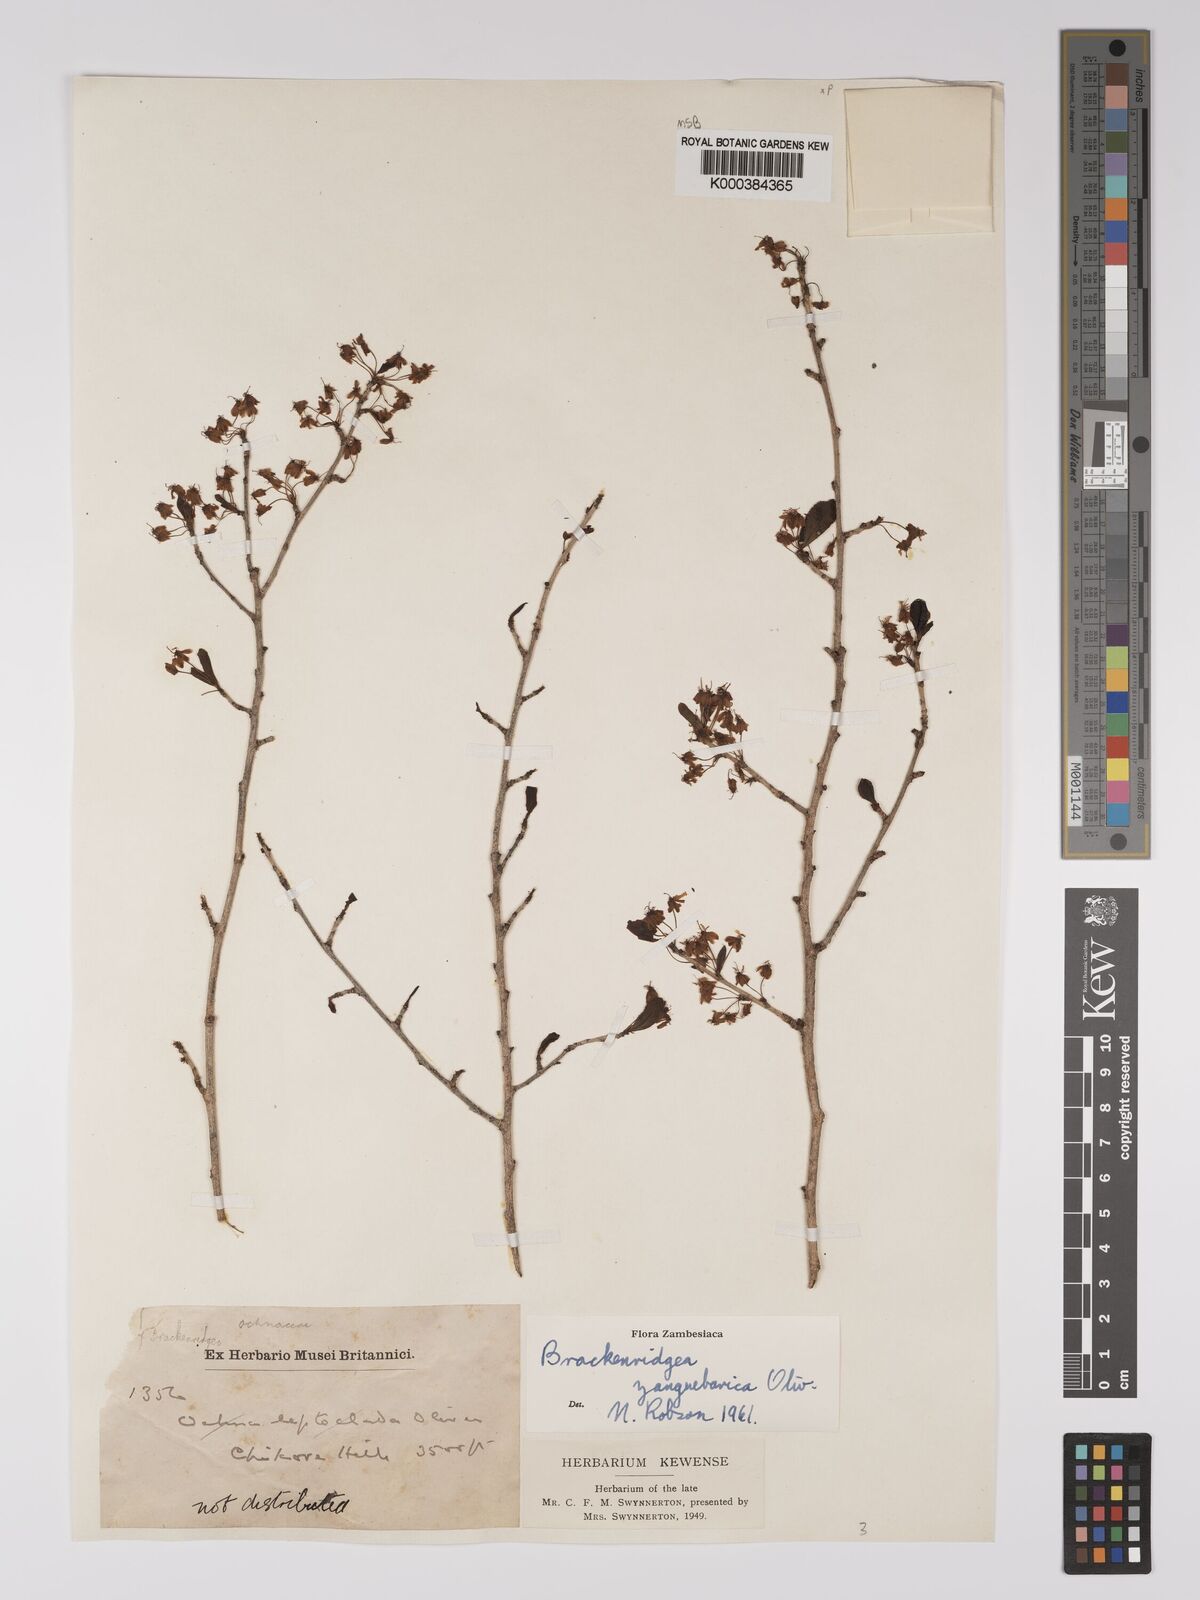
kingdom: Plantae
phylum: Tracheophyta
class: Magnoliopsida
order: Malpighiales
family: Ochnaceae
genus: Brackenridgea
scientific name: Brackenridgea zanguebarica
